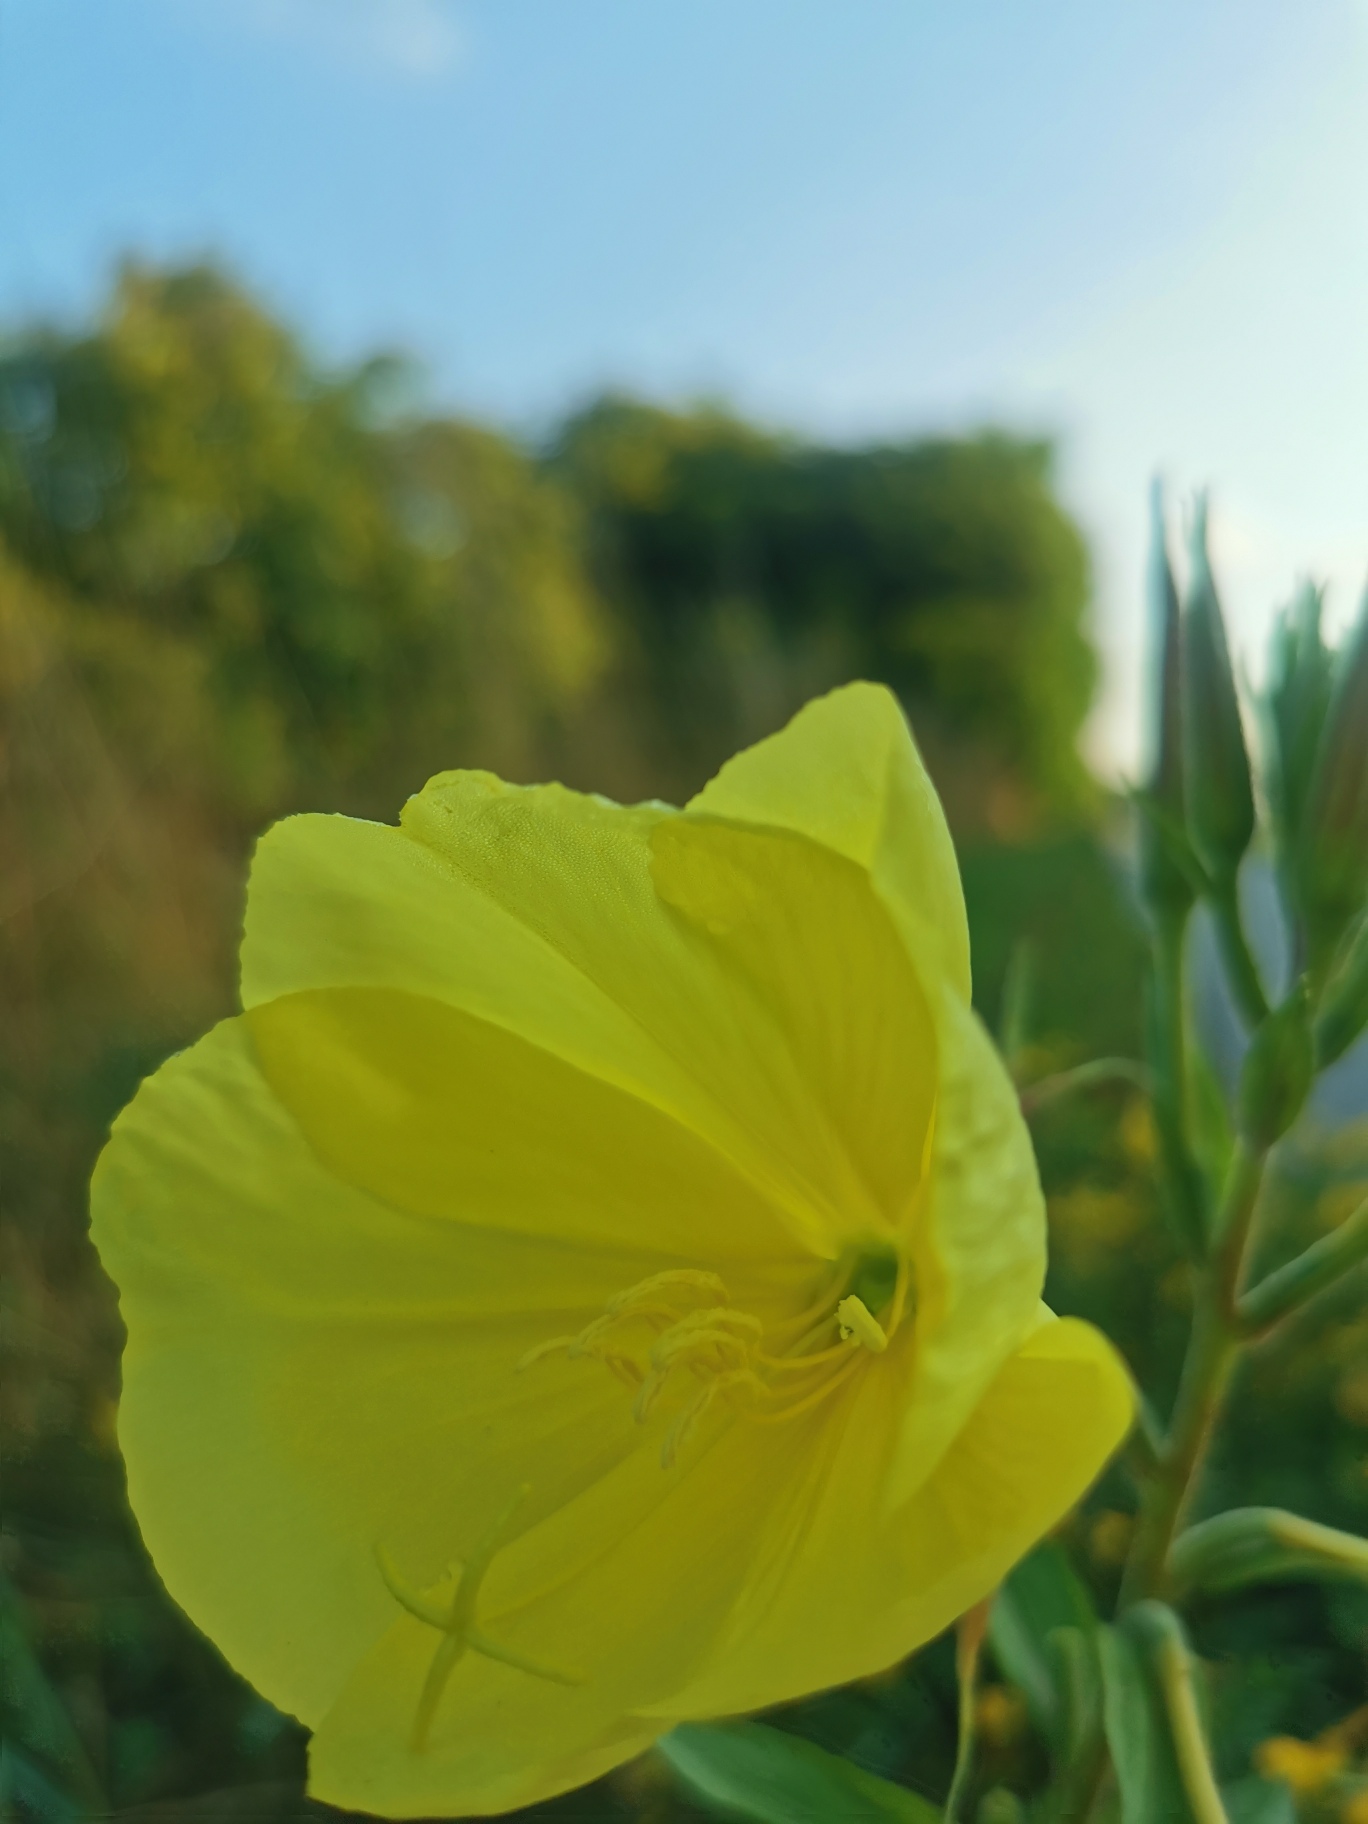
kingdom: Plantae
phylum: Tracheophyta
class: Magnoliopsida
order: Myrtales
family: Onagraceae
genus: Oenothera
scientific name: Oenothera glazioviana
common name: Kæmpe-natlys
